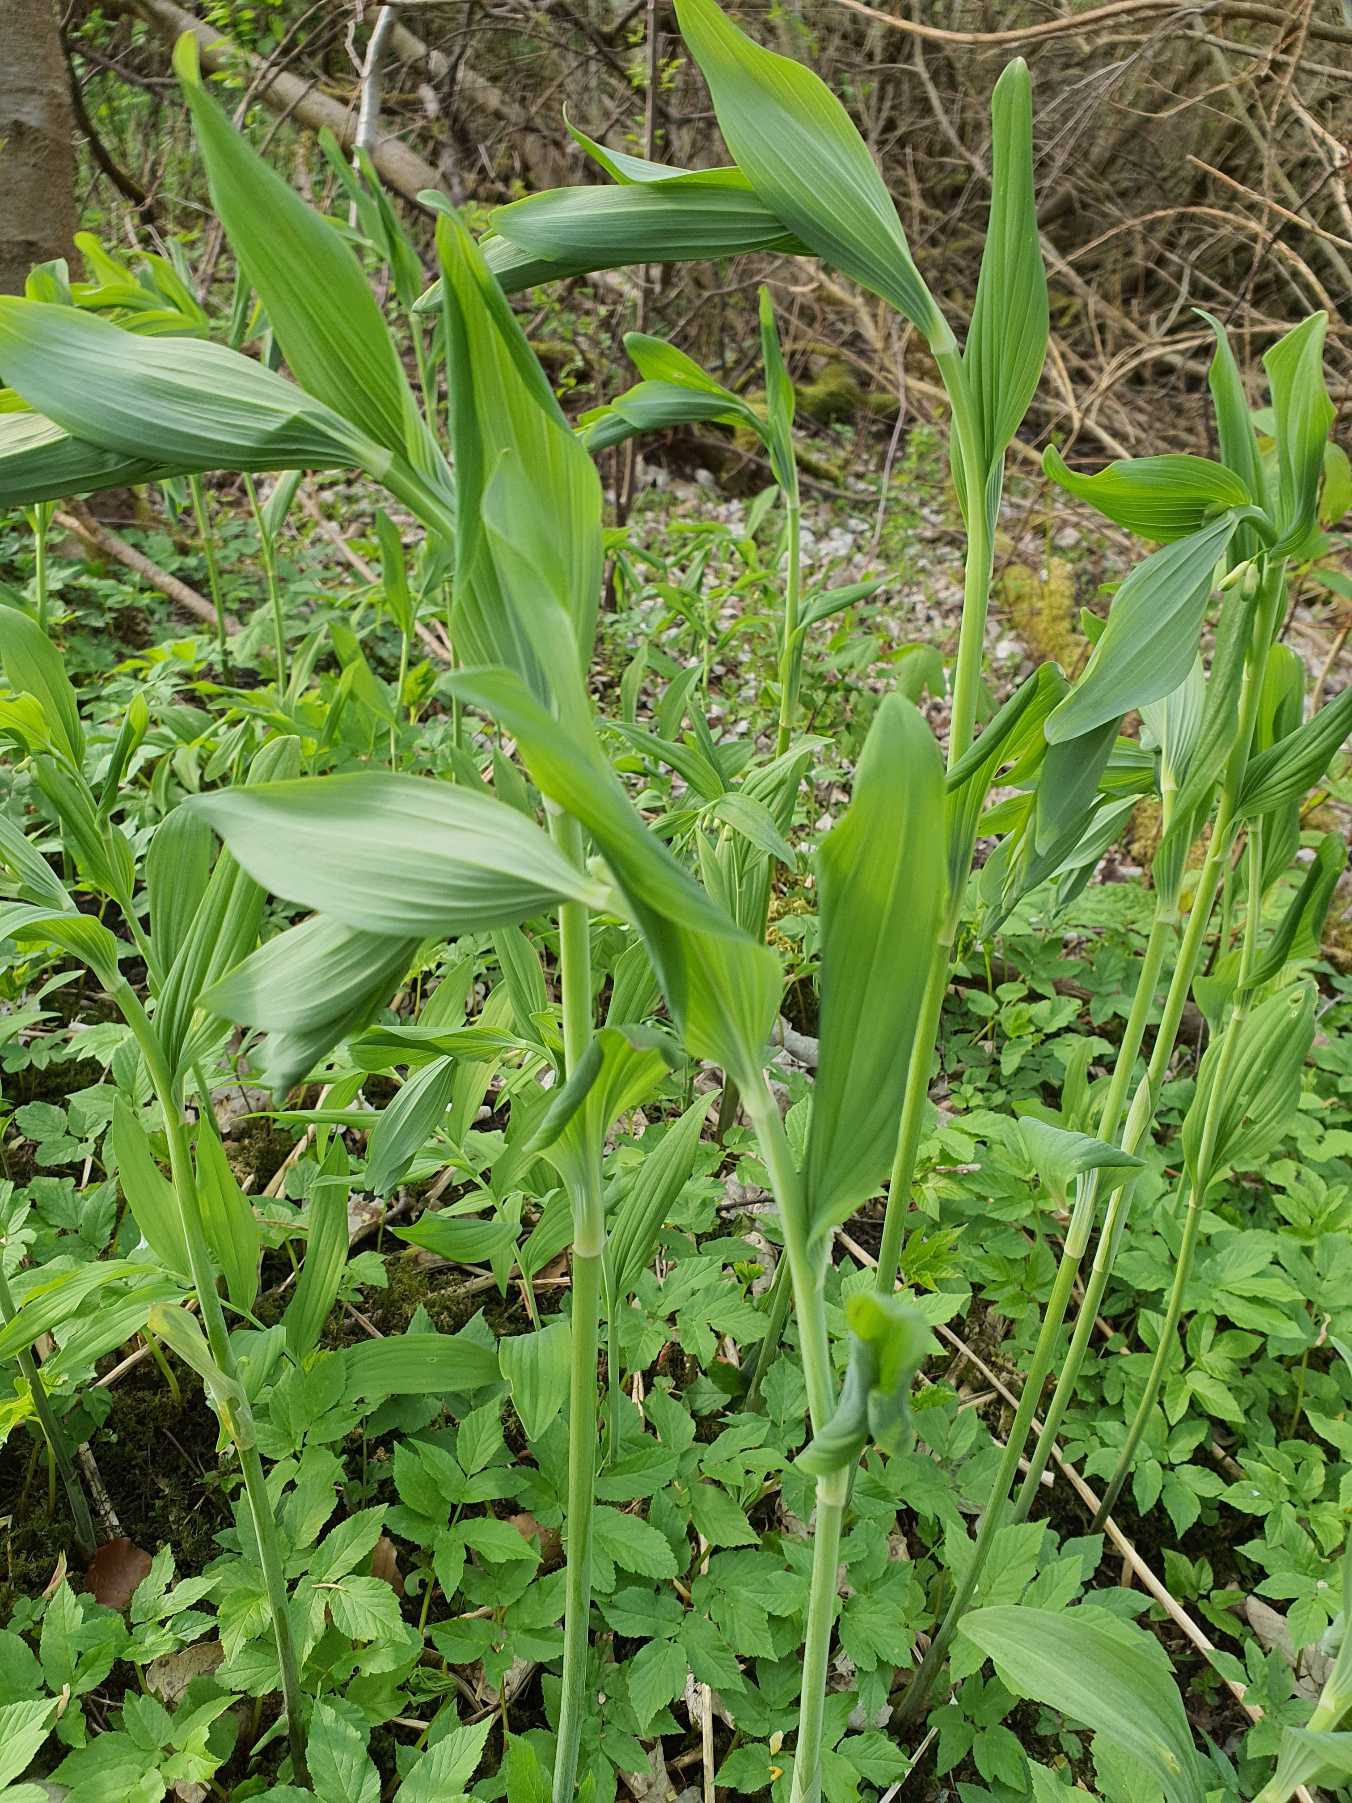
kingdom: Plantae
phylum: Tracheophyta
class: Liliopsida
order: Asparagales
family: Asparagaceae
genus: Polygonatum
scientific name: Polygonatum multiflorum
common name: Stor konval
